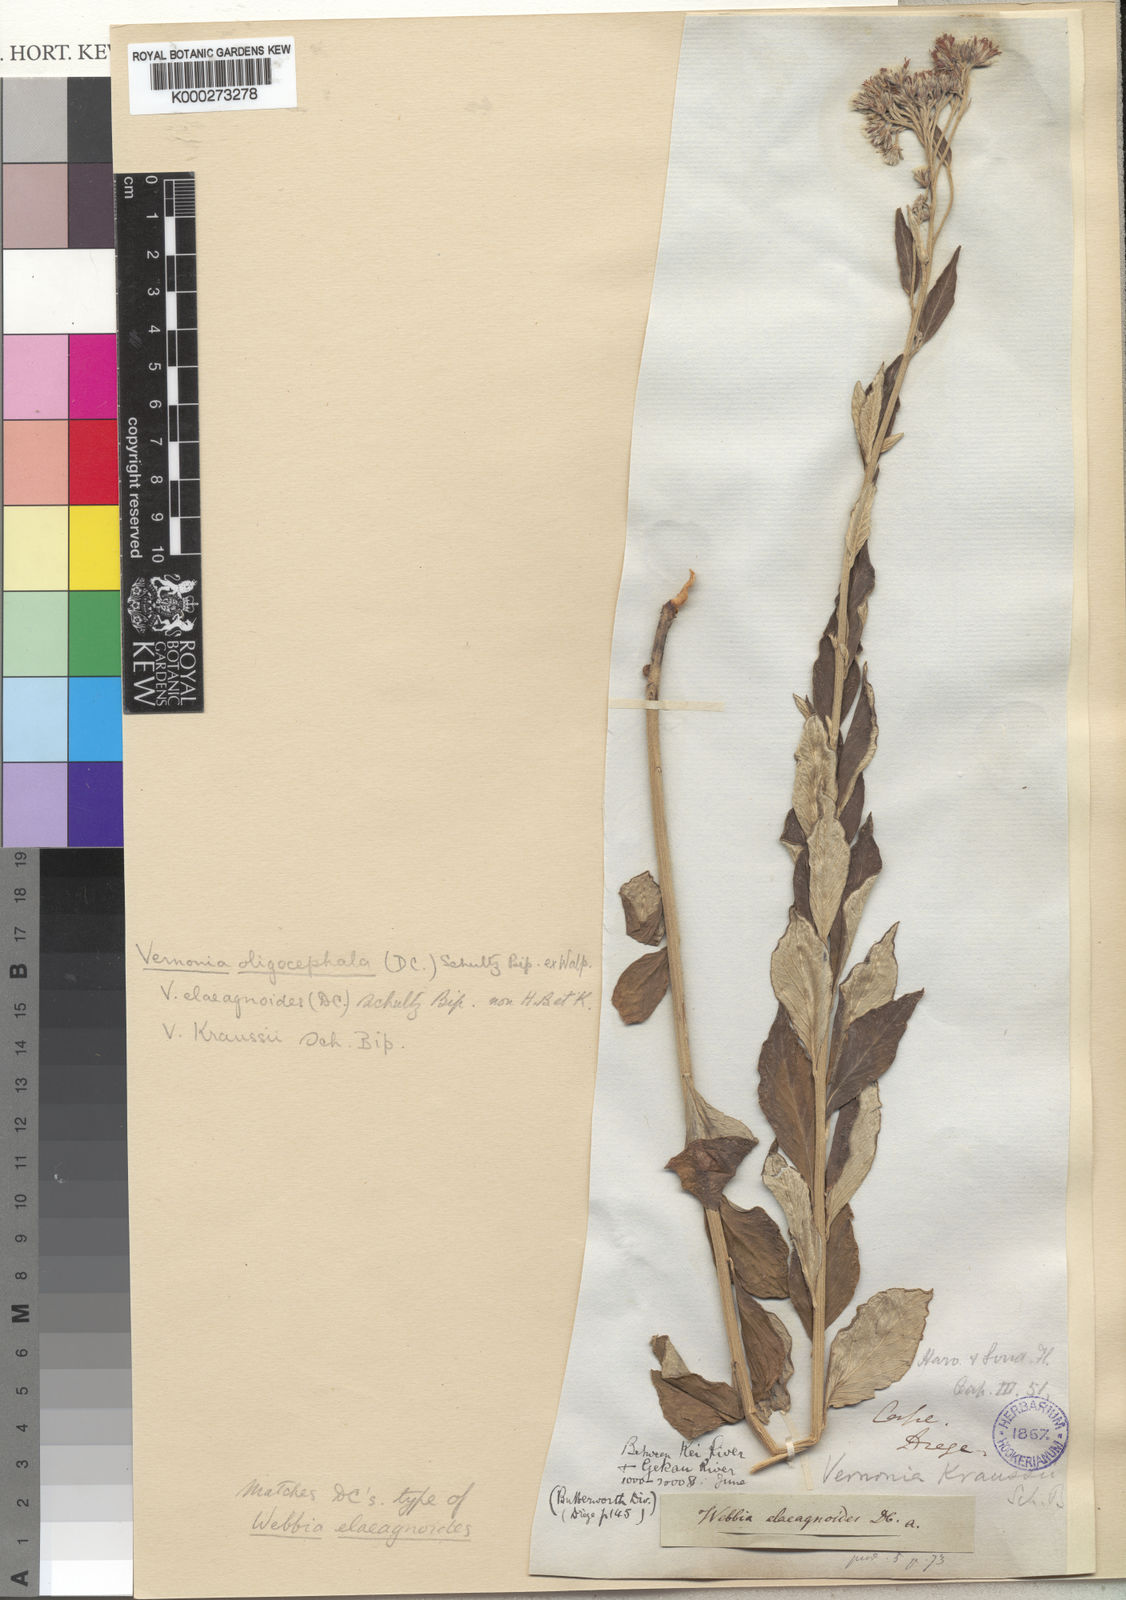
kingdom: Plantae
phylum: Tracheophyta
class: Magnoliopsida
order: Asterales
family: Asteraceae
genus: Vernonia
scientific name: Vernonia
